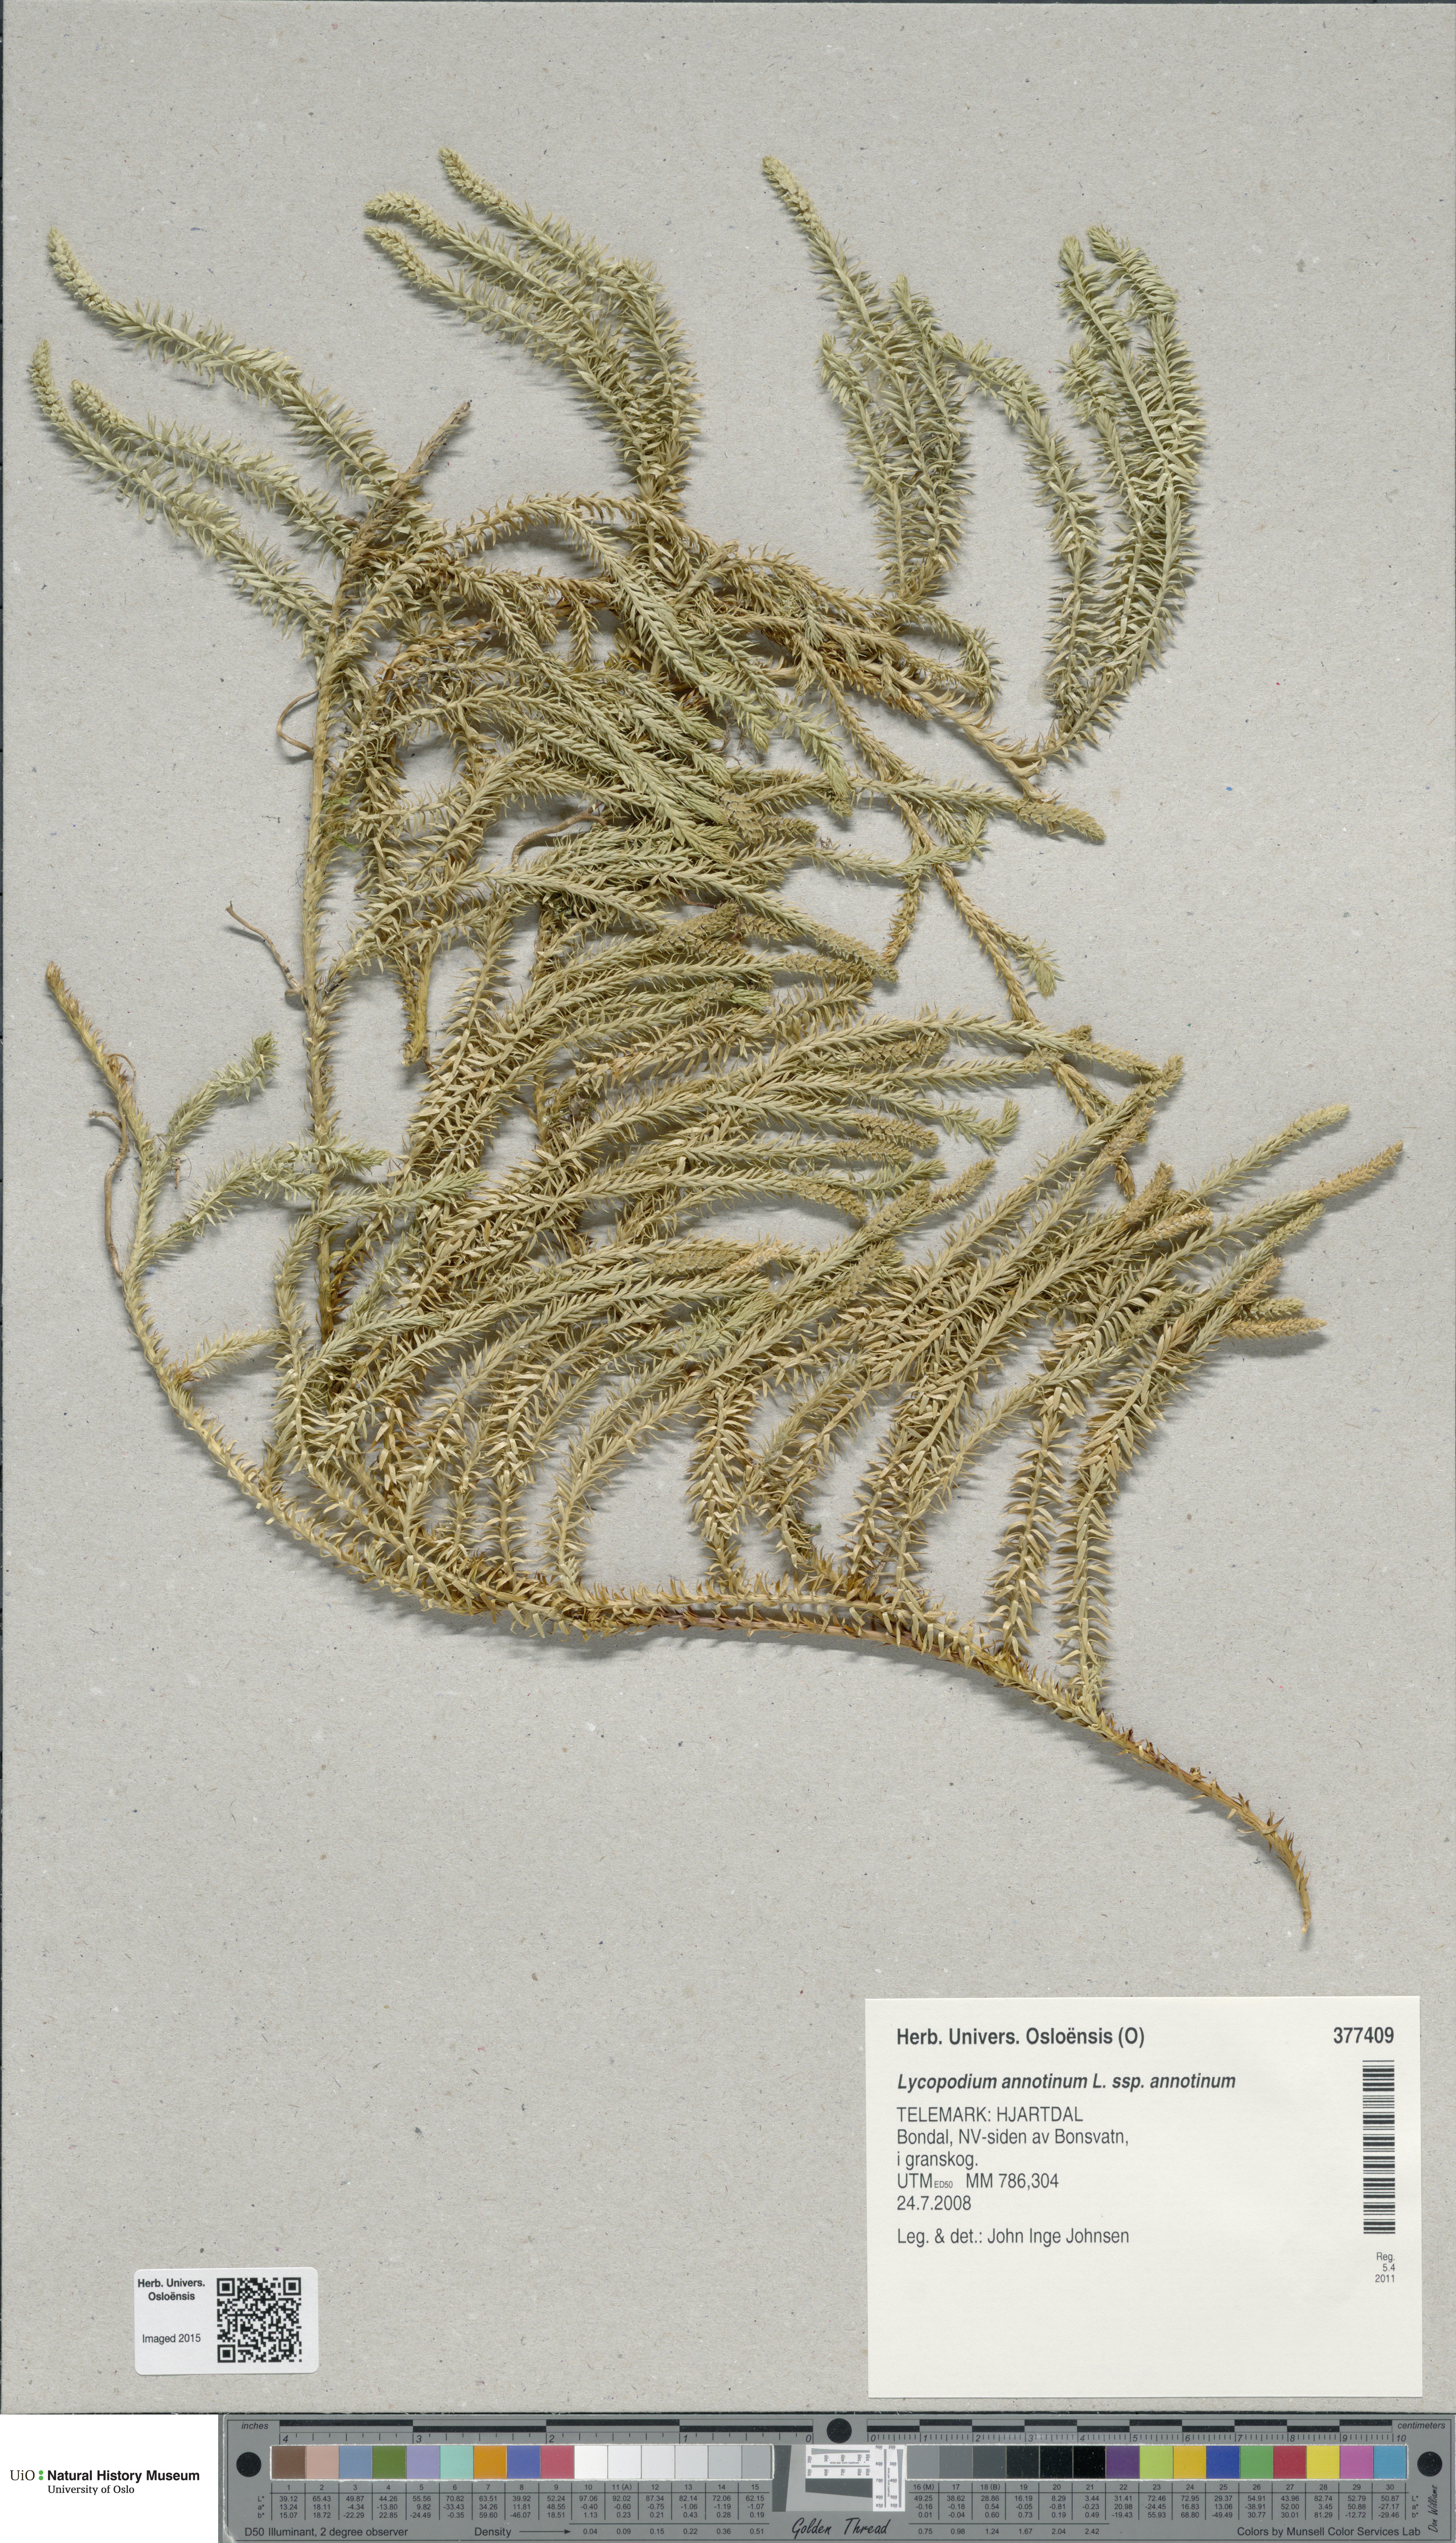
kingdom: Plantae
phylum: Tracheophyta
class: Lycopodiopsida
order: Lycopodiales
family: Lycopodiaceae
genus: Spinulum
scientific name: Spinulum annotinum
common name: Interrupted club-moss
